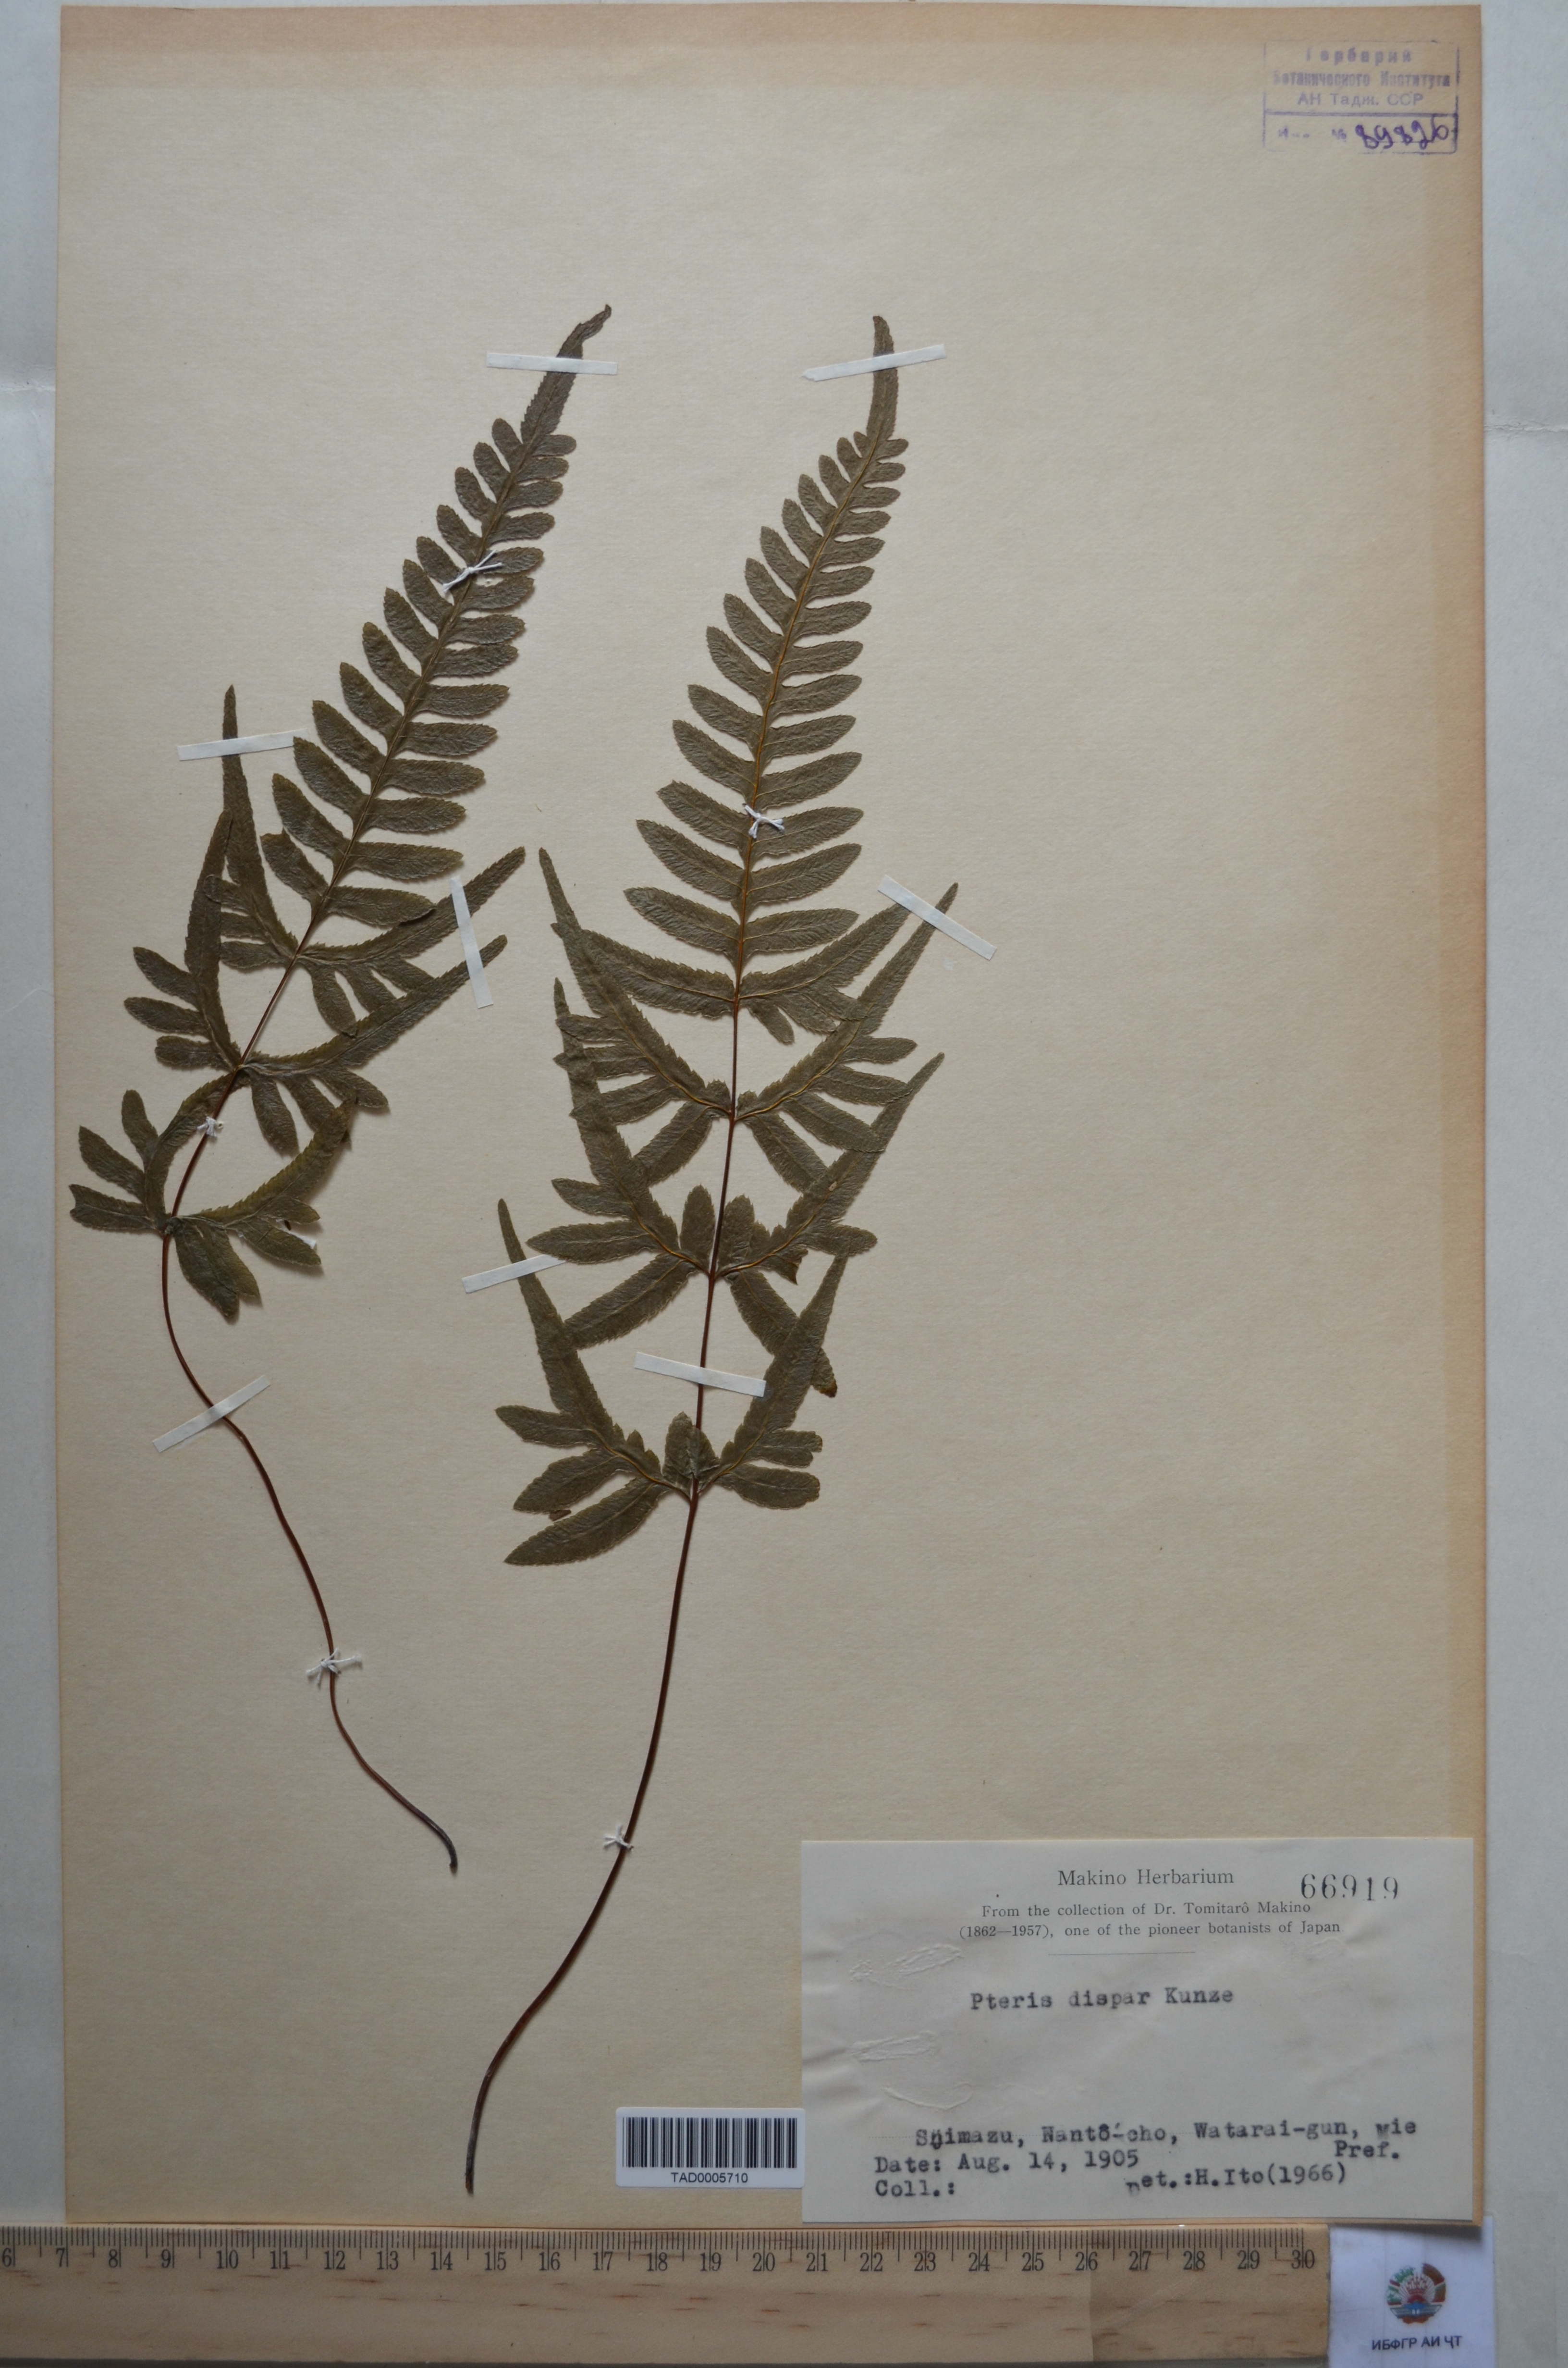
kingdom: Plantae
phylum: Tracheophyta
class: Polypodiopsida
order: Polypodiales
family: Pteridaceae
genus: Pteris
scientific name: Pteris dispar
